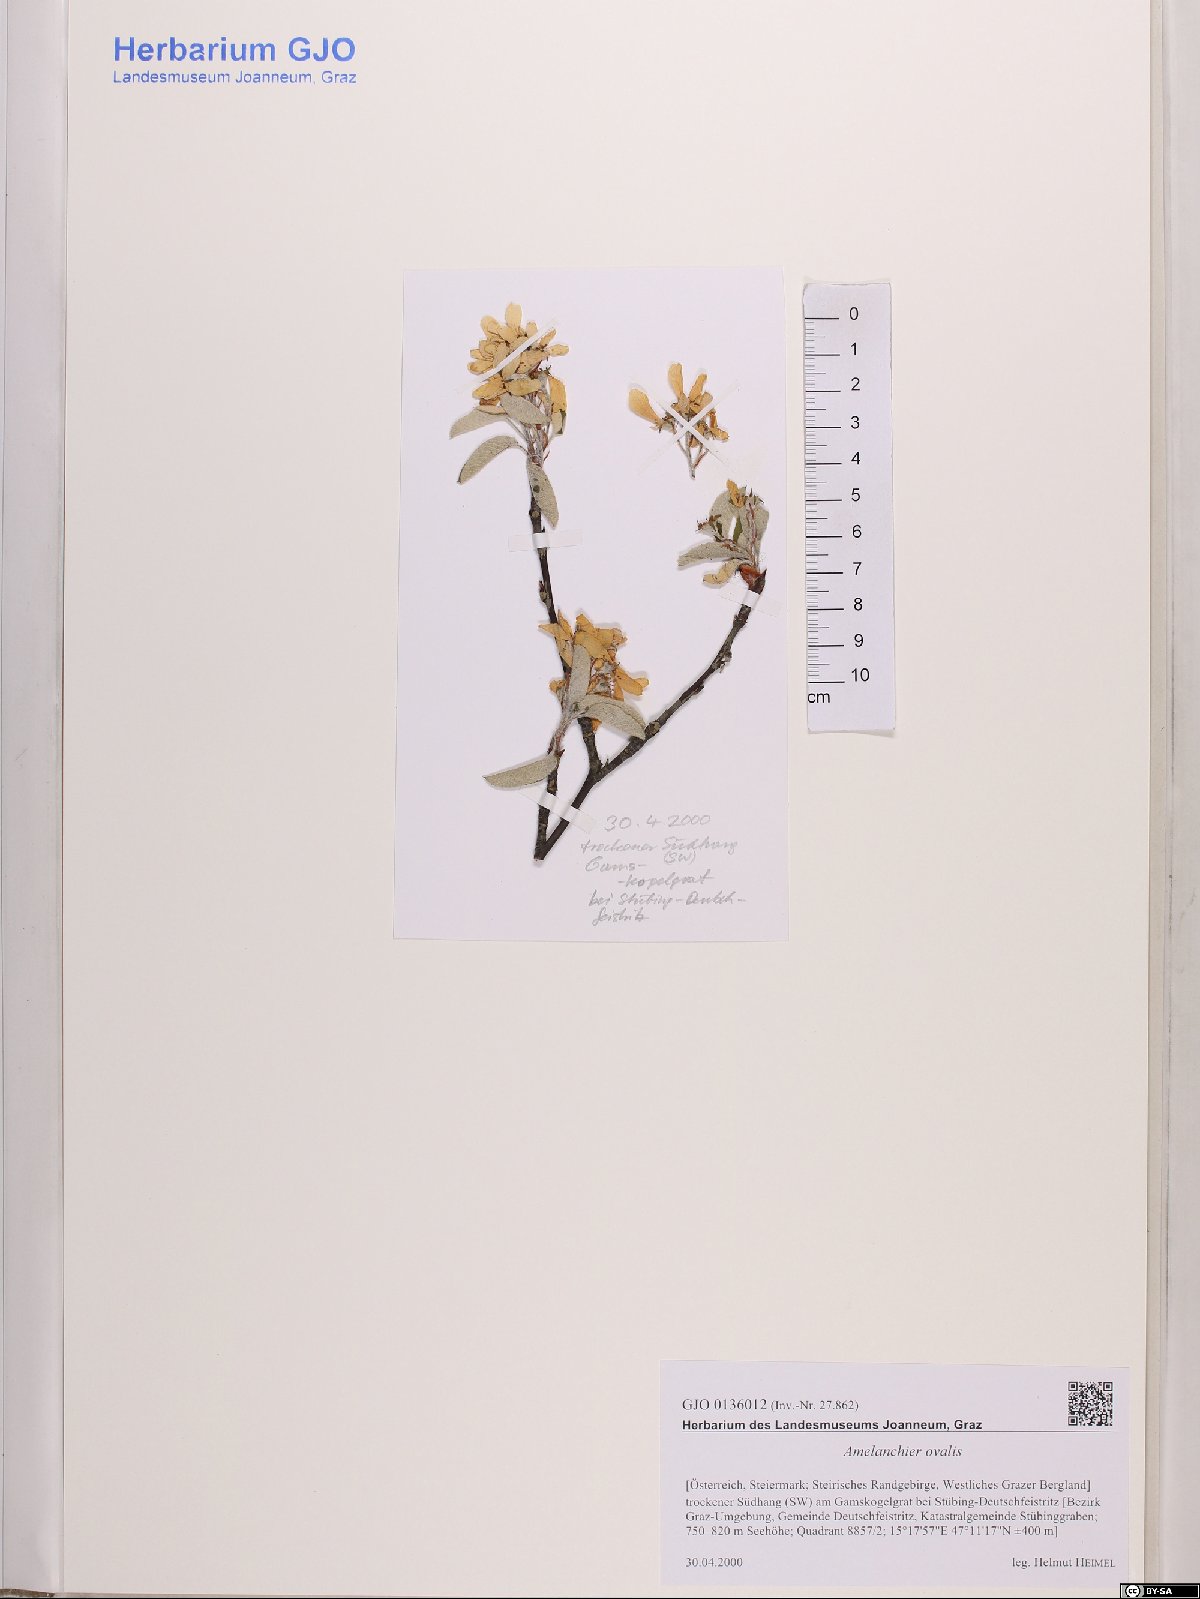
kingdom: Plantae
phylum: Tracheophyta
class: Magnoliopsida
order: Rosales
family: Rosaceae
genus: Amelanchier
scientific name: Amelanchier ovalis
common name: Serviceberry
